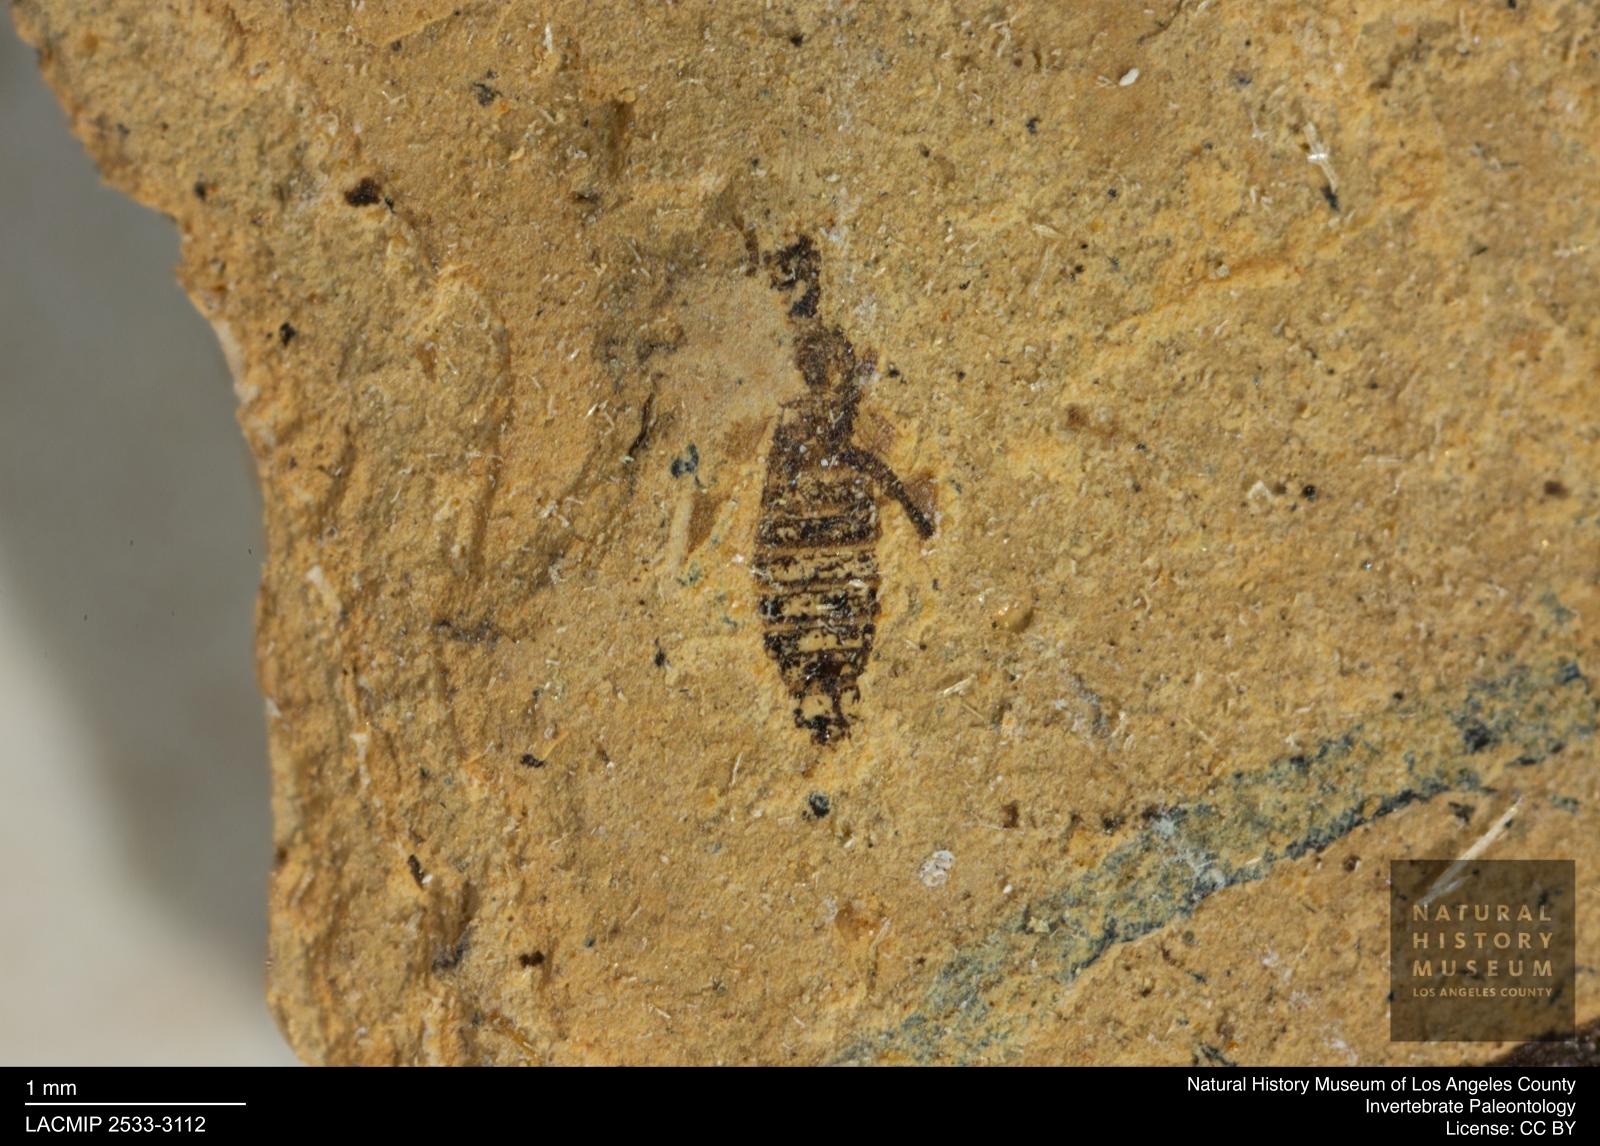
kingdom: Animalia
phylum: Arthropoda
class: Insecta
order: Thysanoptera
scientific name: Thysanoptera
